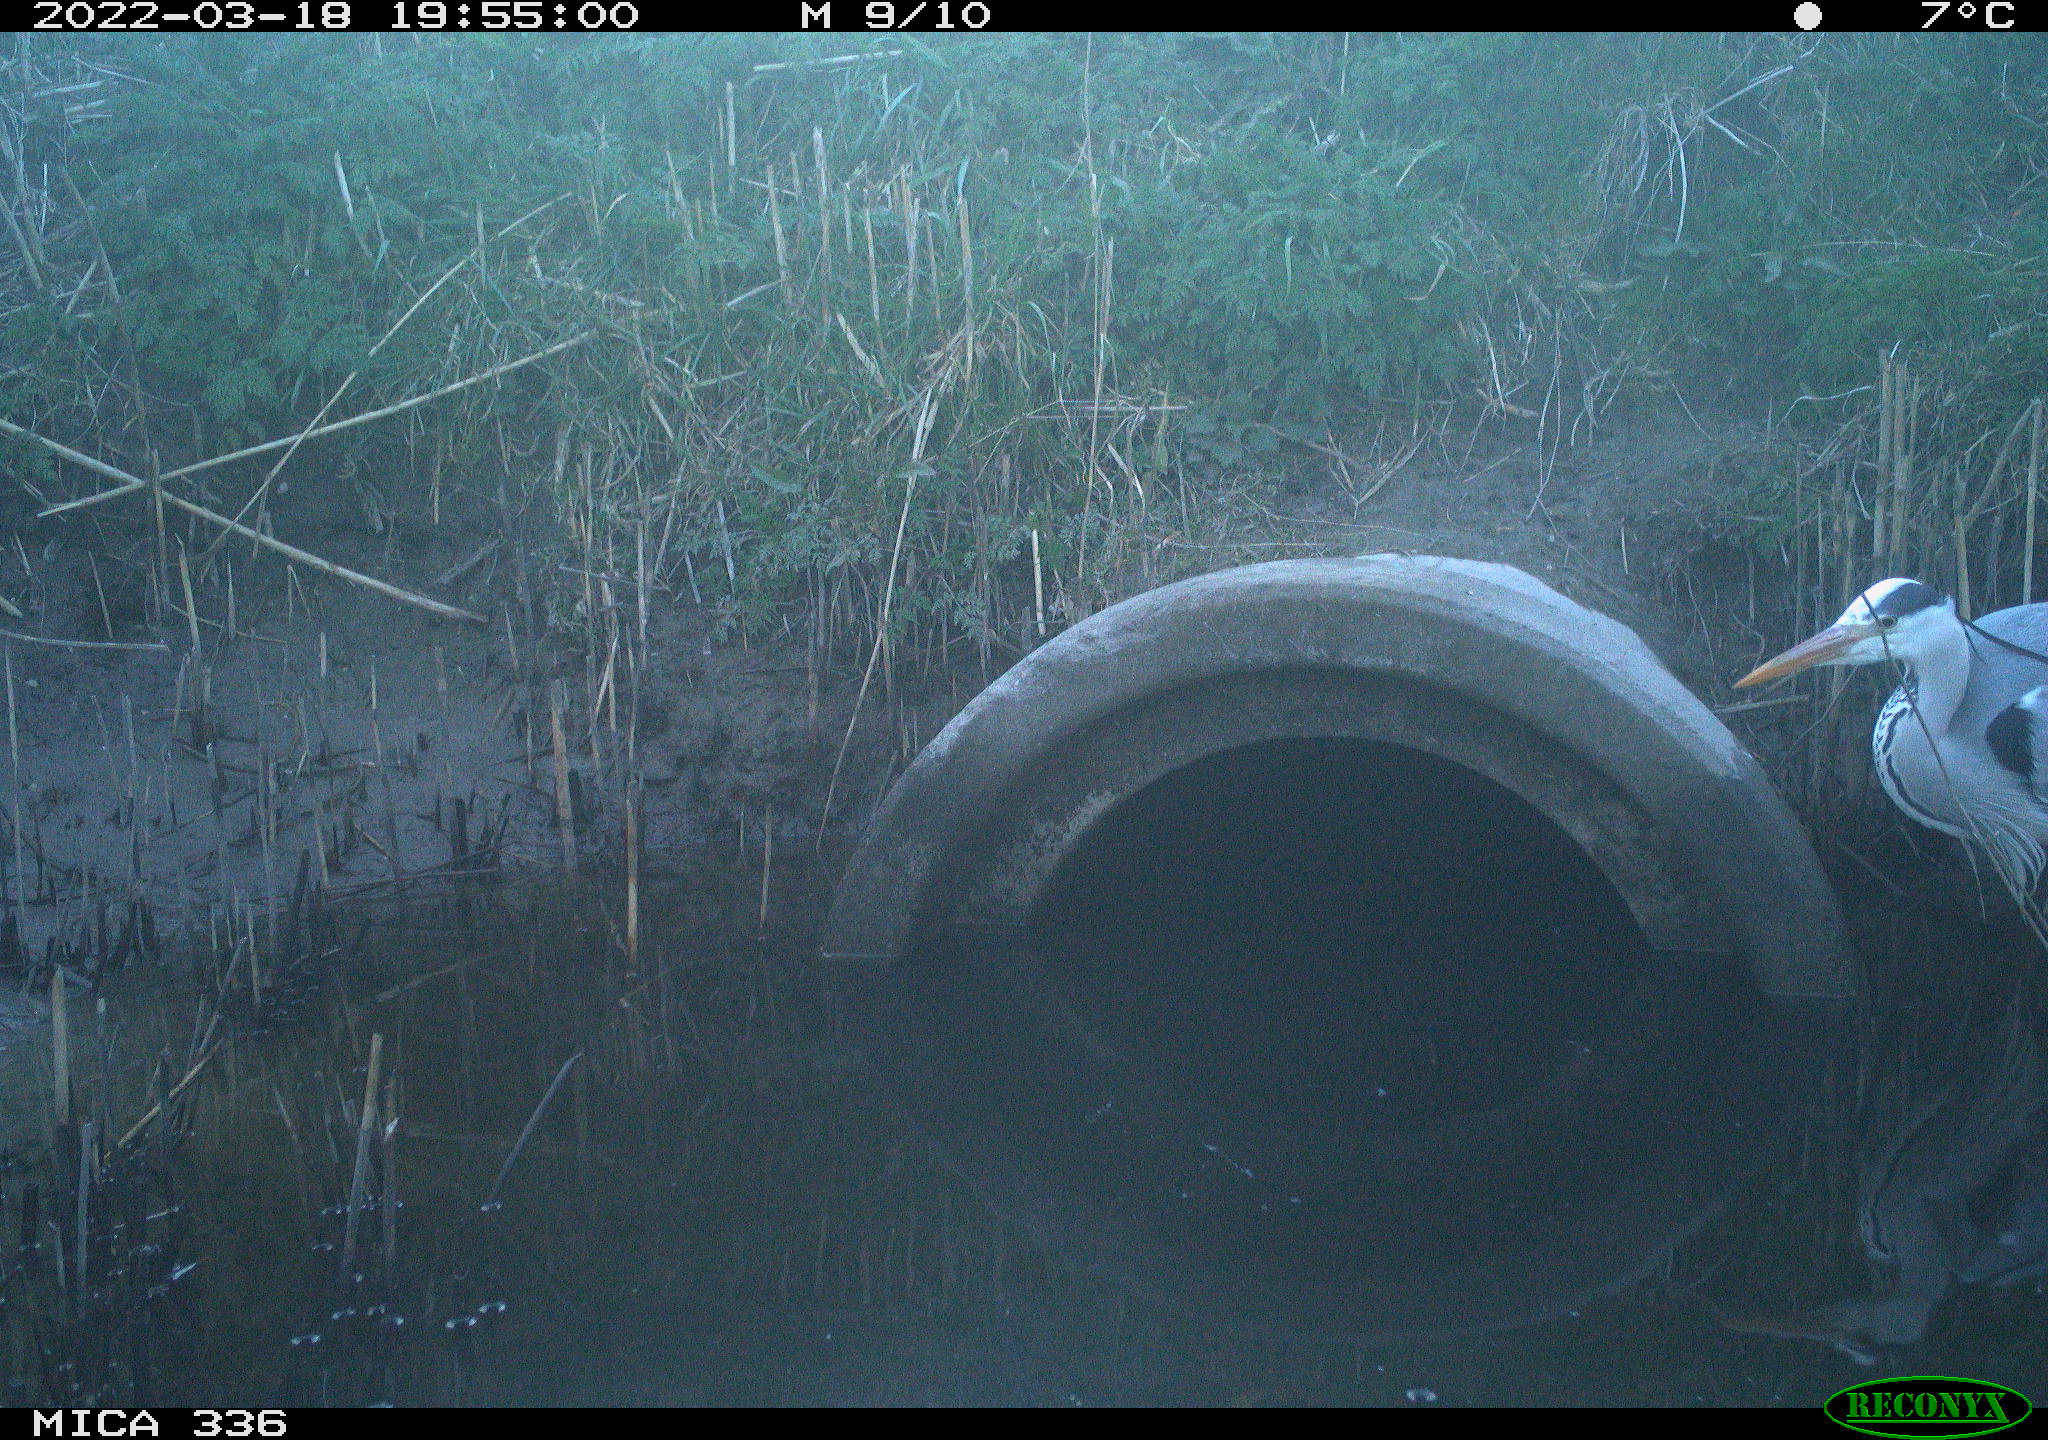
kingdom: Animalia
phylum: Chordata
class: Aves
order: Pelecaniformes
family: Ardeidae
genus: Ardea
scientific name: Ardea cinerea
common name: Grey heron
